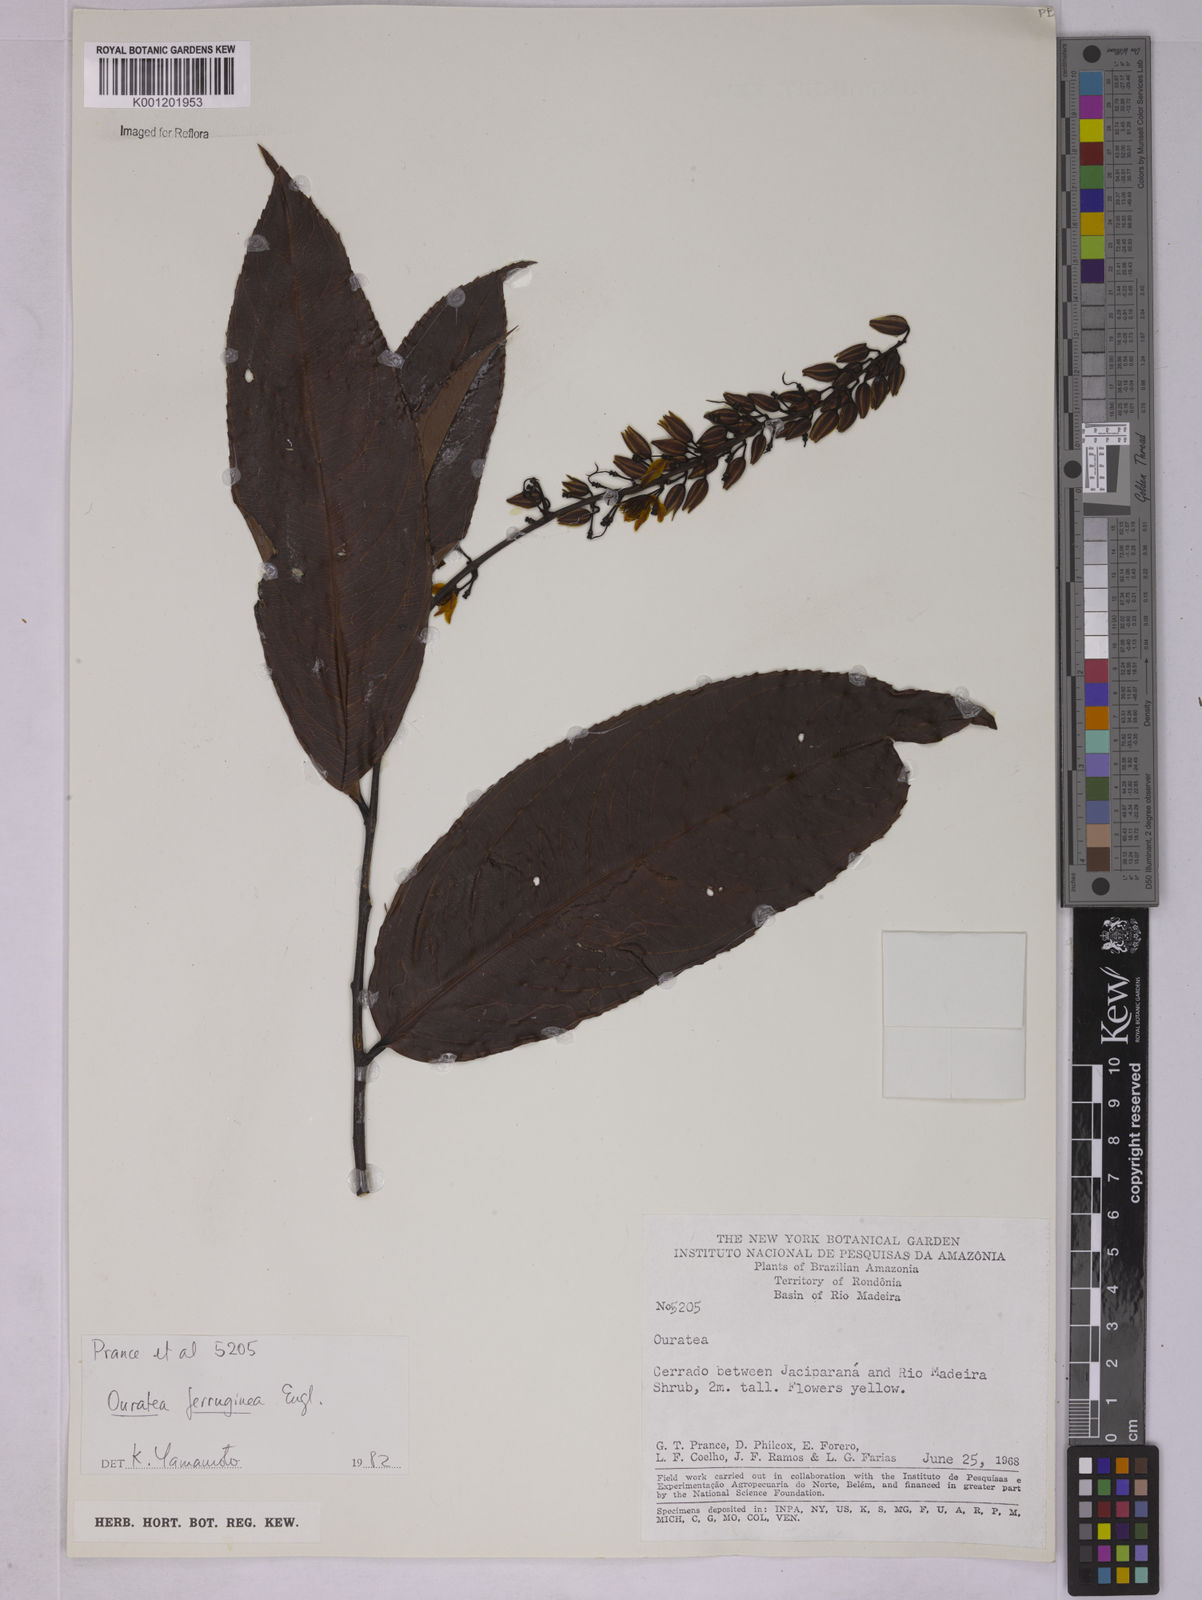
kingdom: Plantae
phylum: Tracheophyta
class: Magnoliopsida
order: Malpighiales
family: Ochnaceae
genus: Ouratea
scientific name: Ouratea ferruginea
